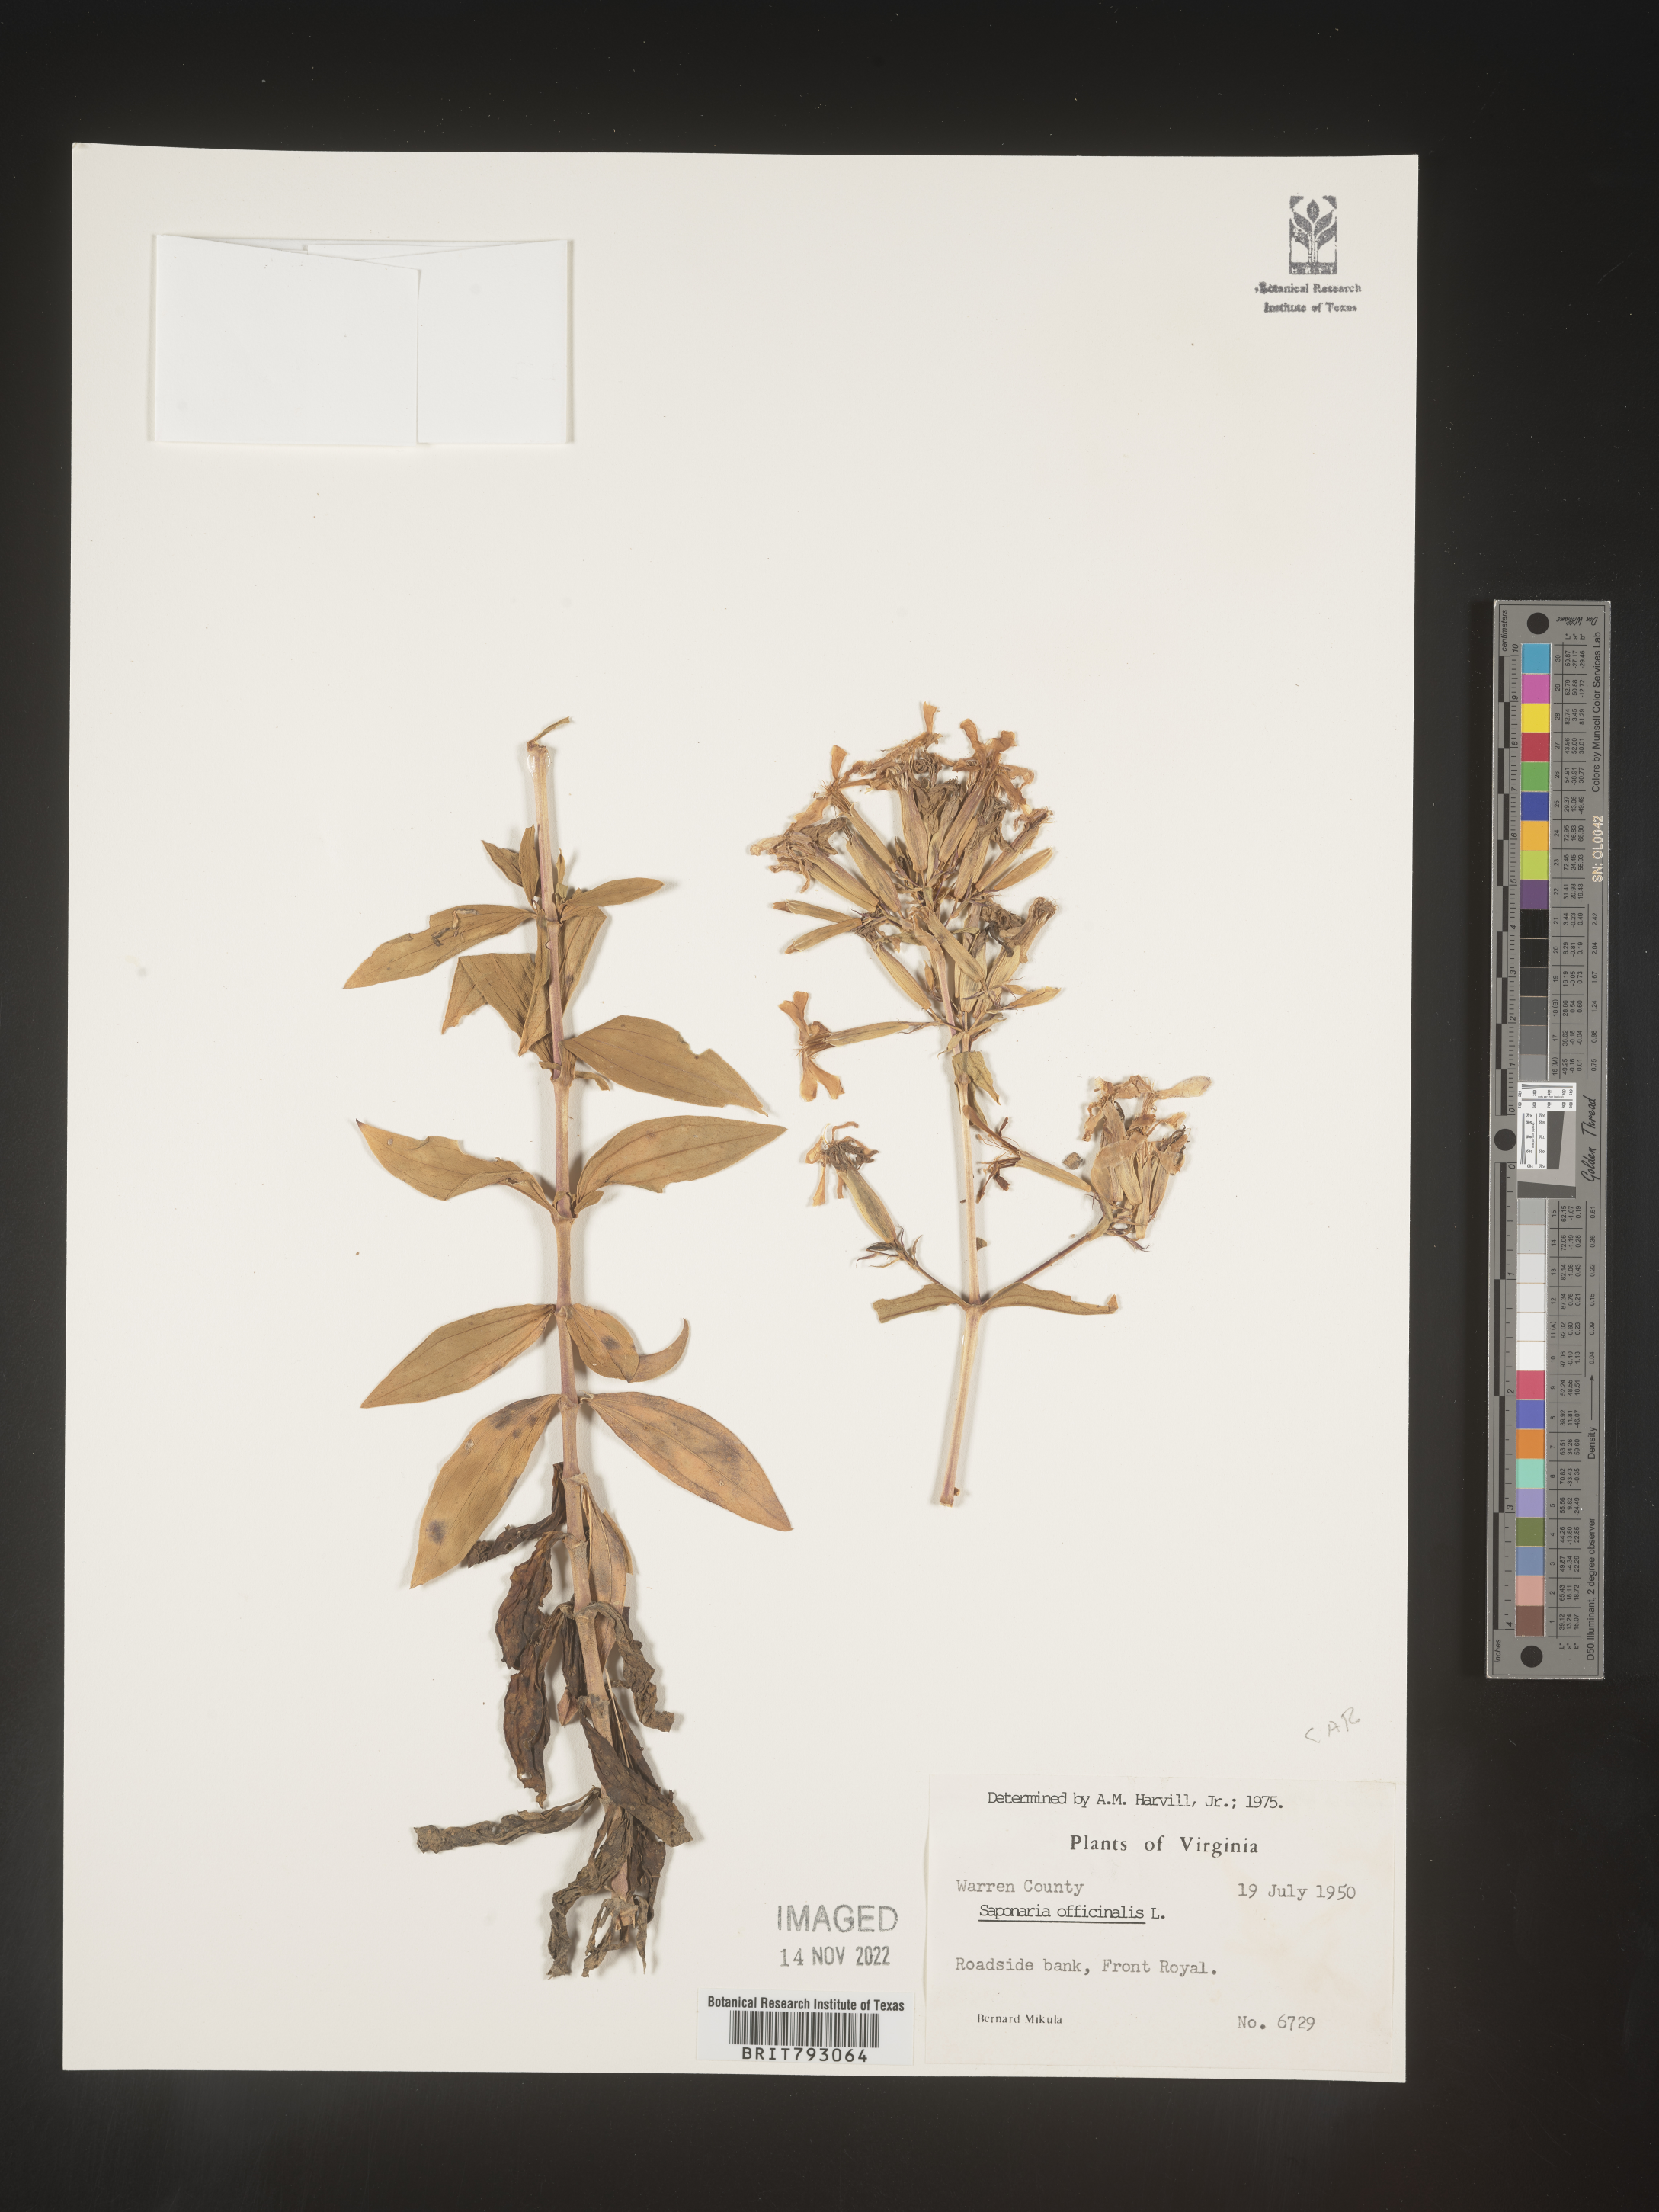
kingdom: Plantae
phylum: Tracheophyta
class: Magnoliopsida
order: Caryophyllales
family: Caryophyllaceae
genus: Saponaria
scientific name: Saponaria officinalis
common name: Soapwort
